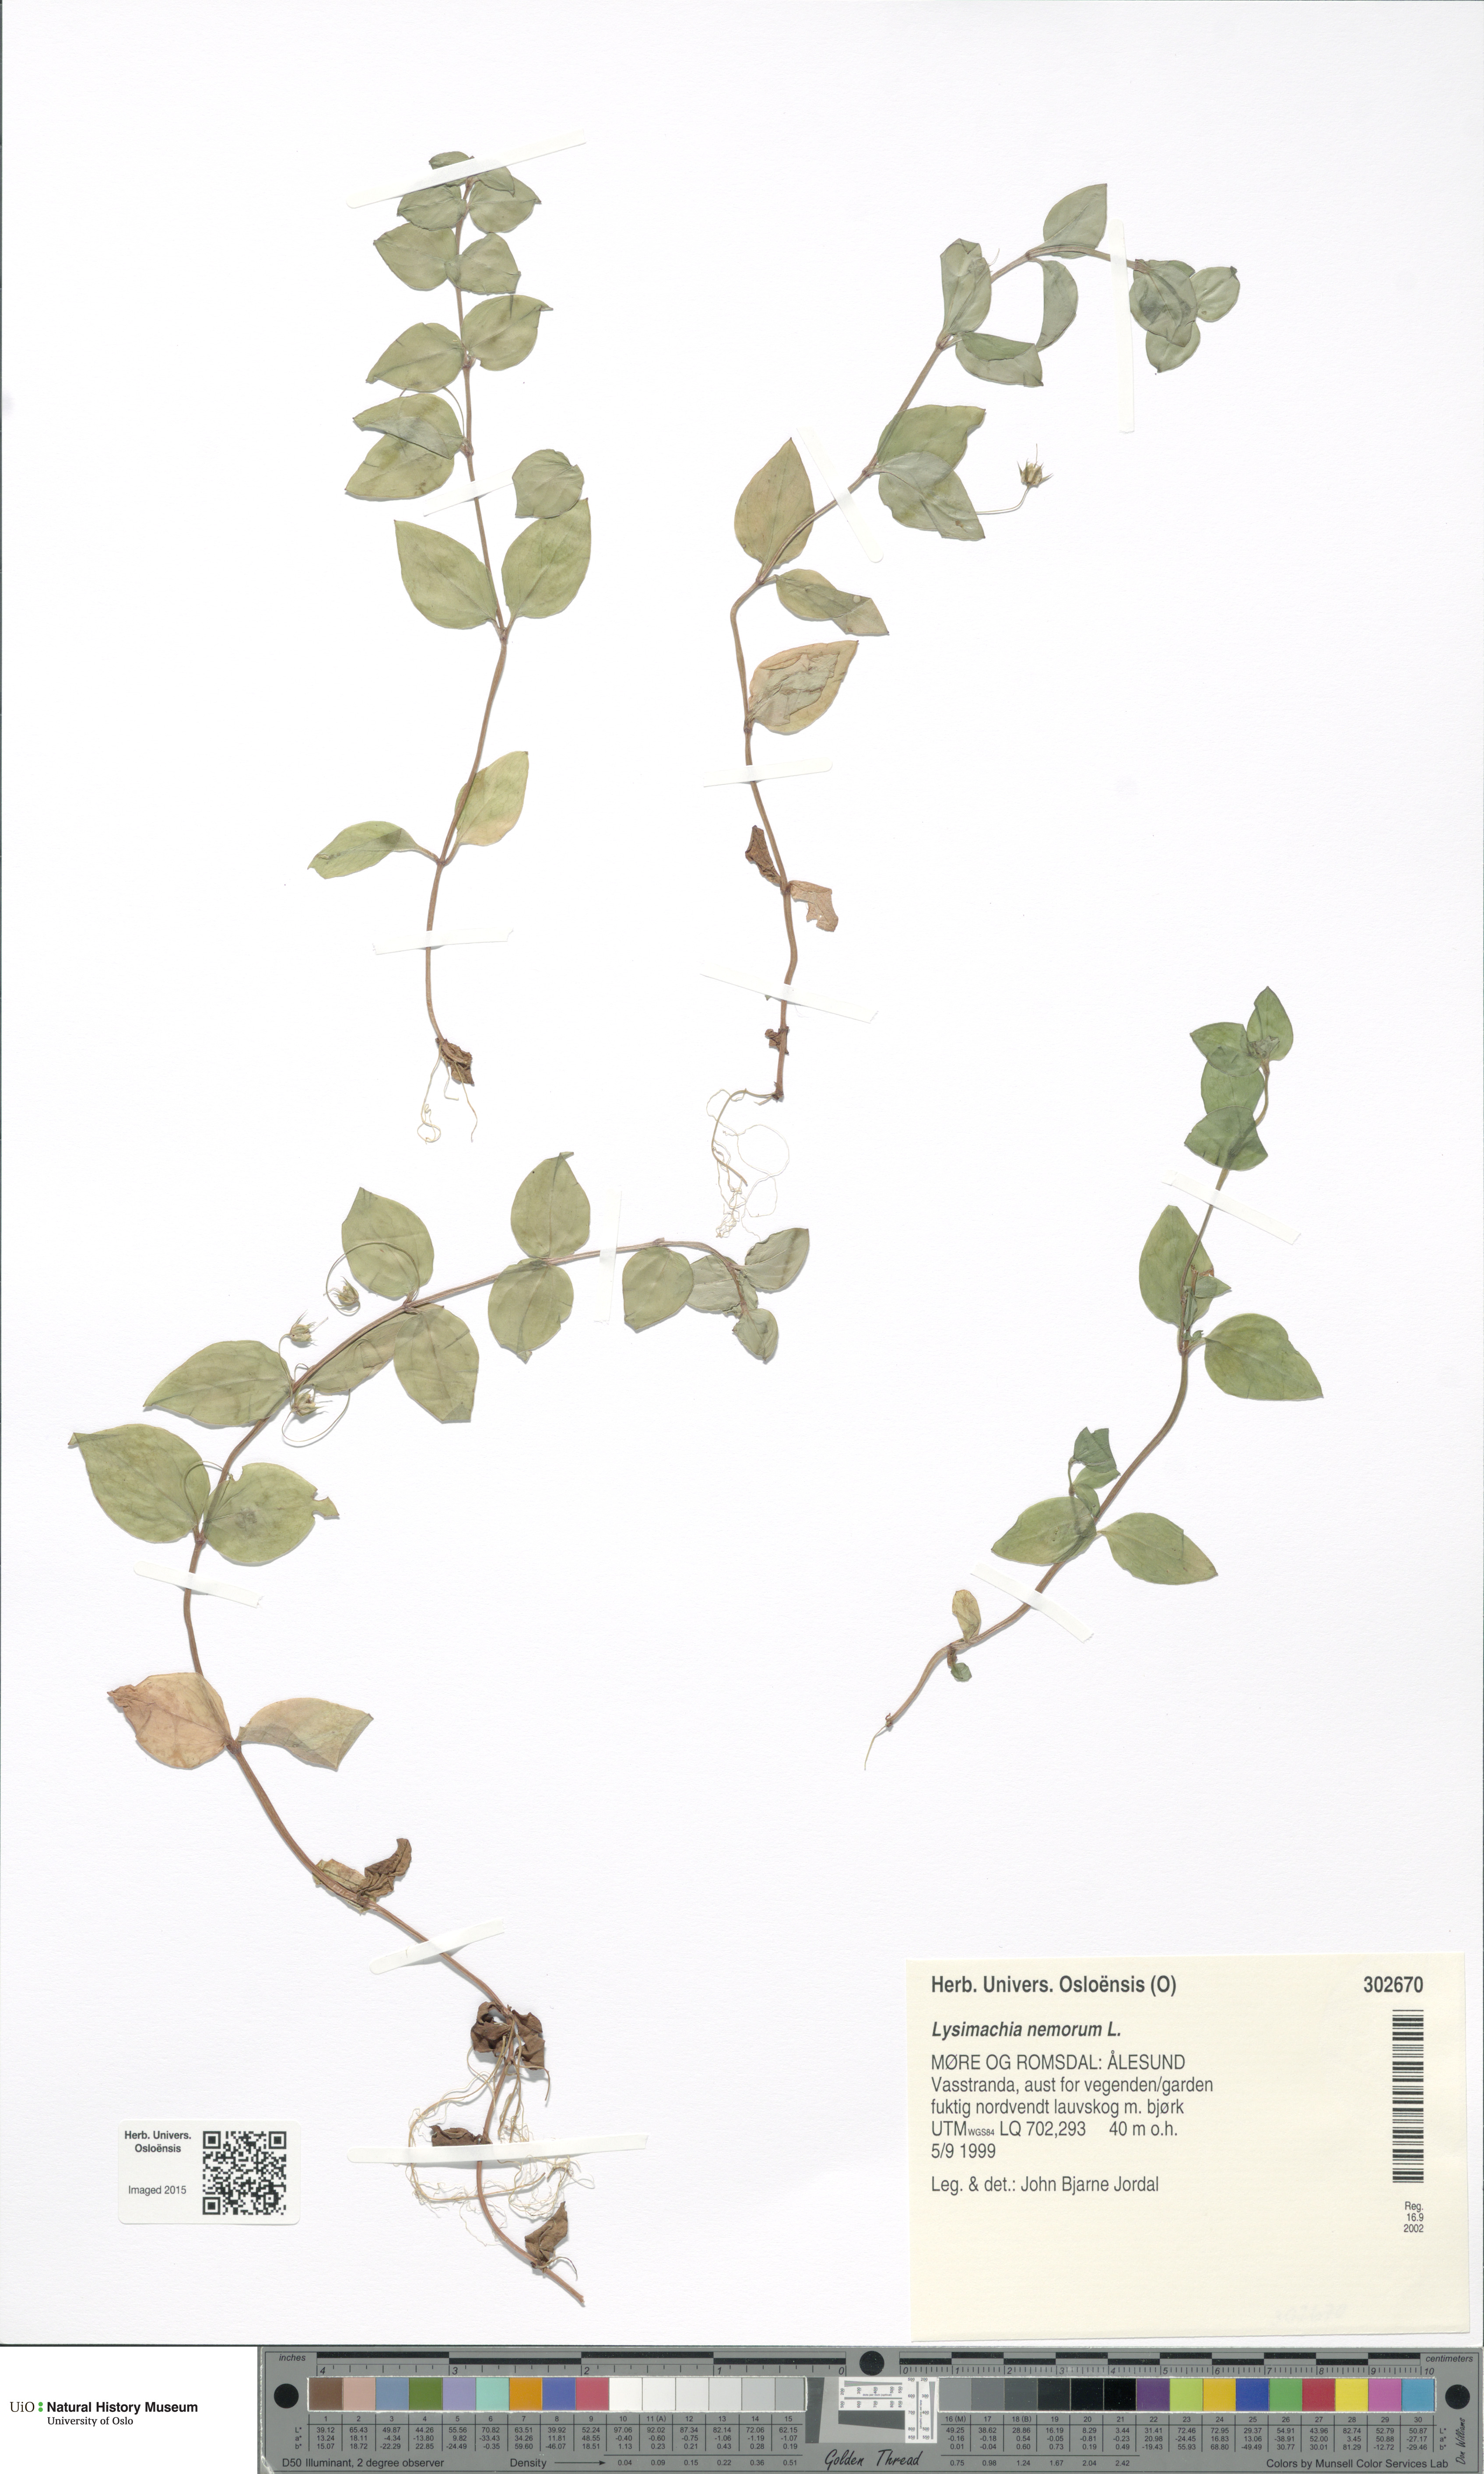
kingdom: Plantae
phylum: Tracheophyta
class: Magnoliopsida
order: Ericales
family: Primulaceae
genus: Lysimachia
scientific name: Lysimachia nemorum
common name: Yellow pimpernel
